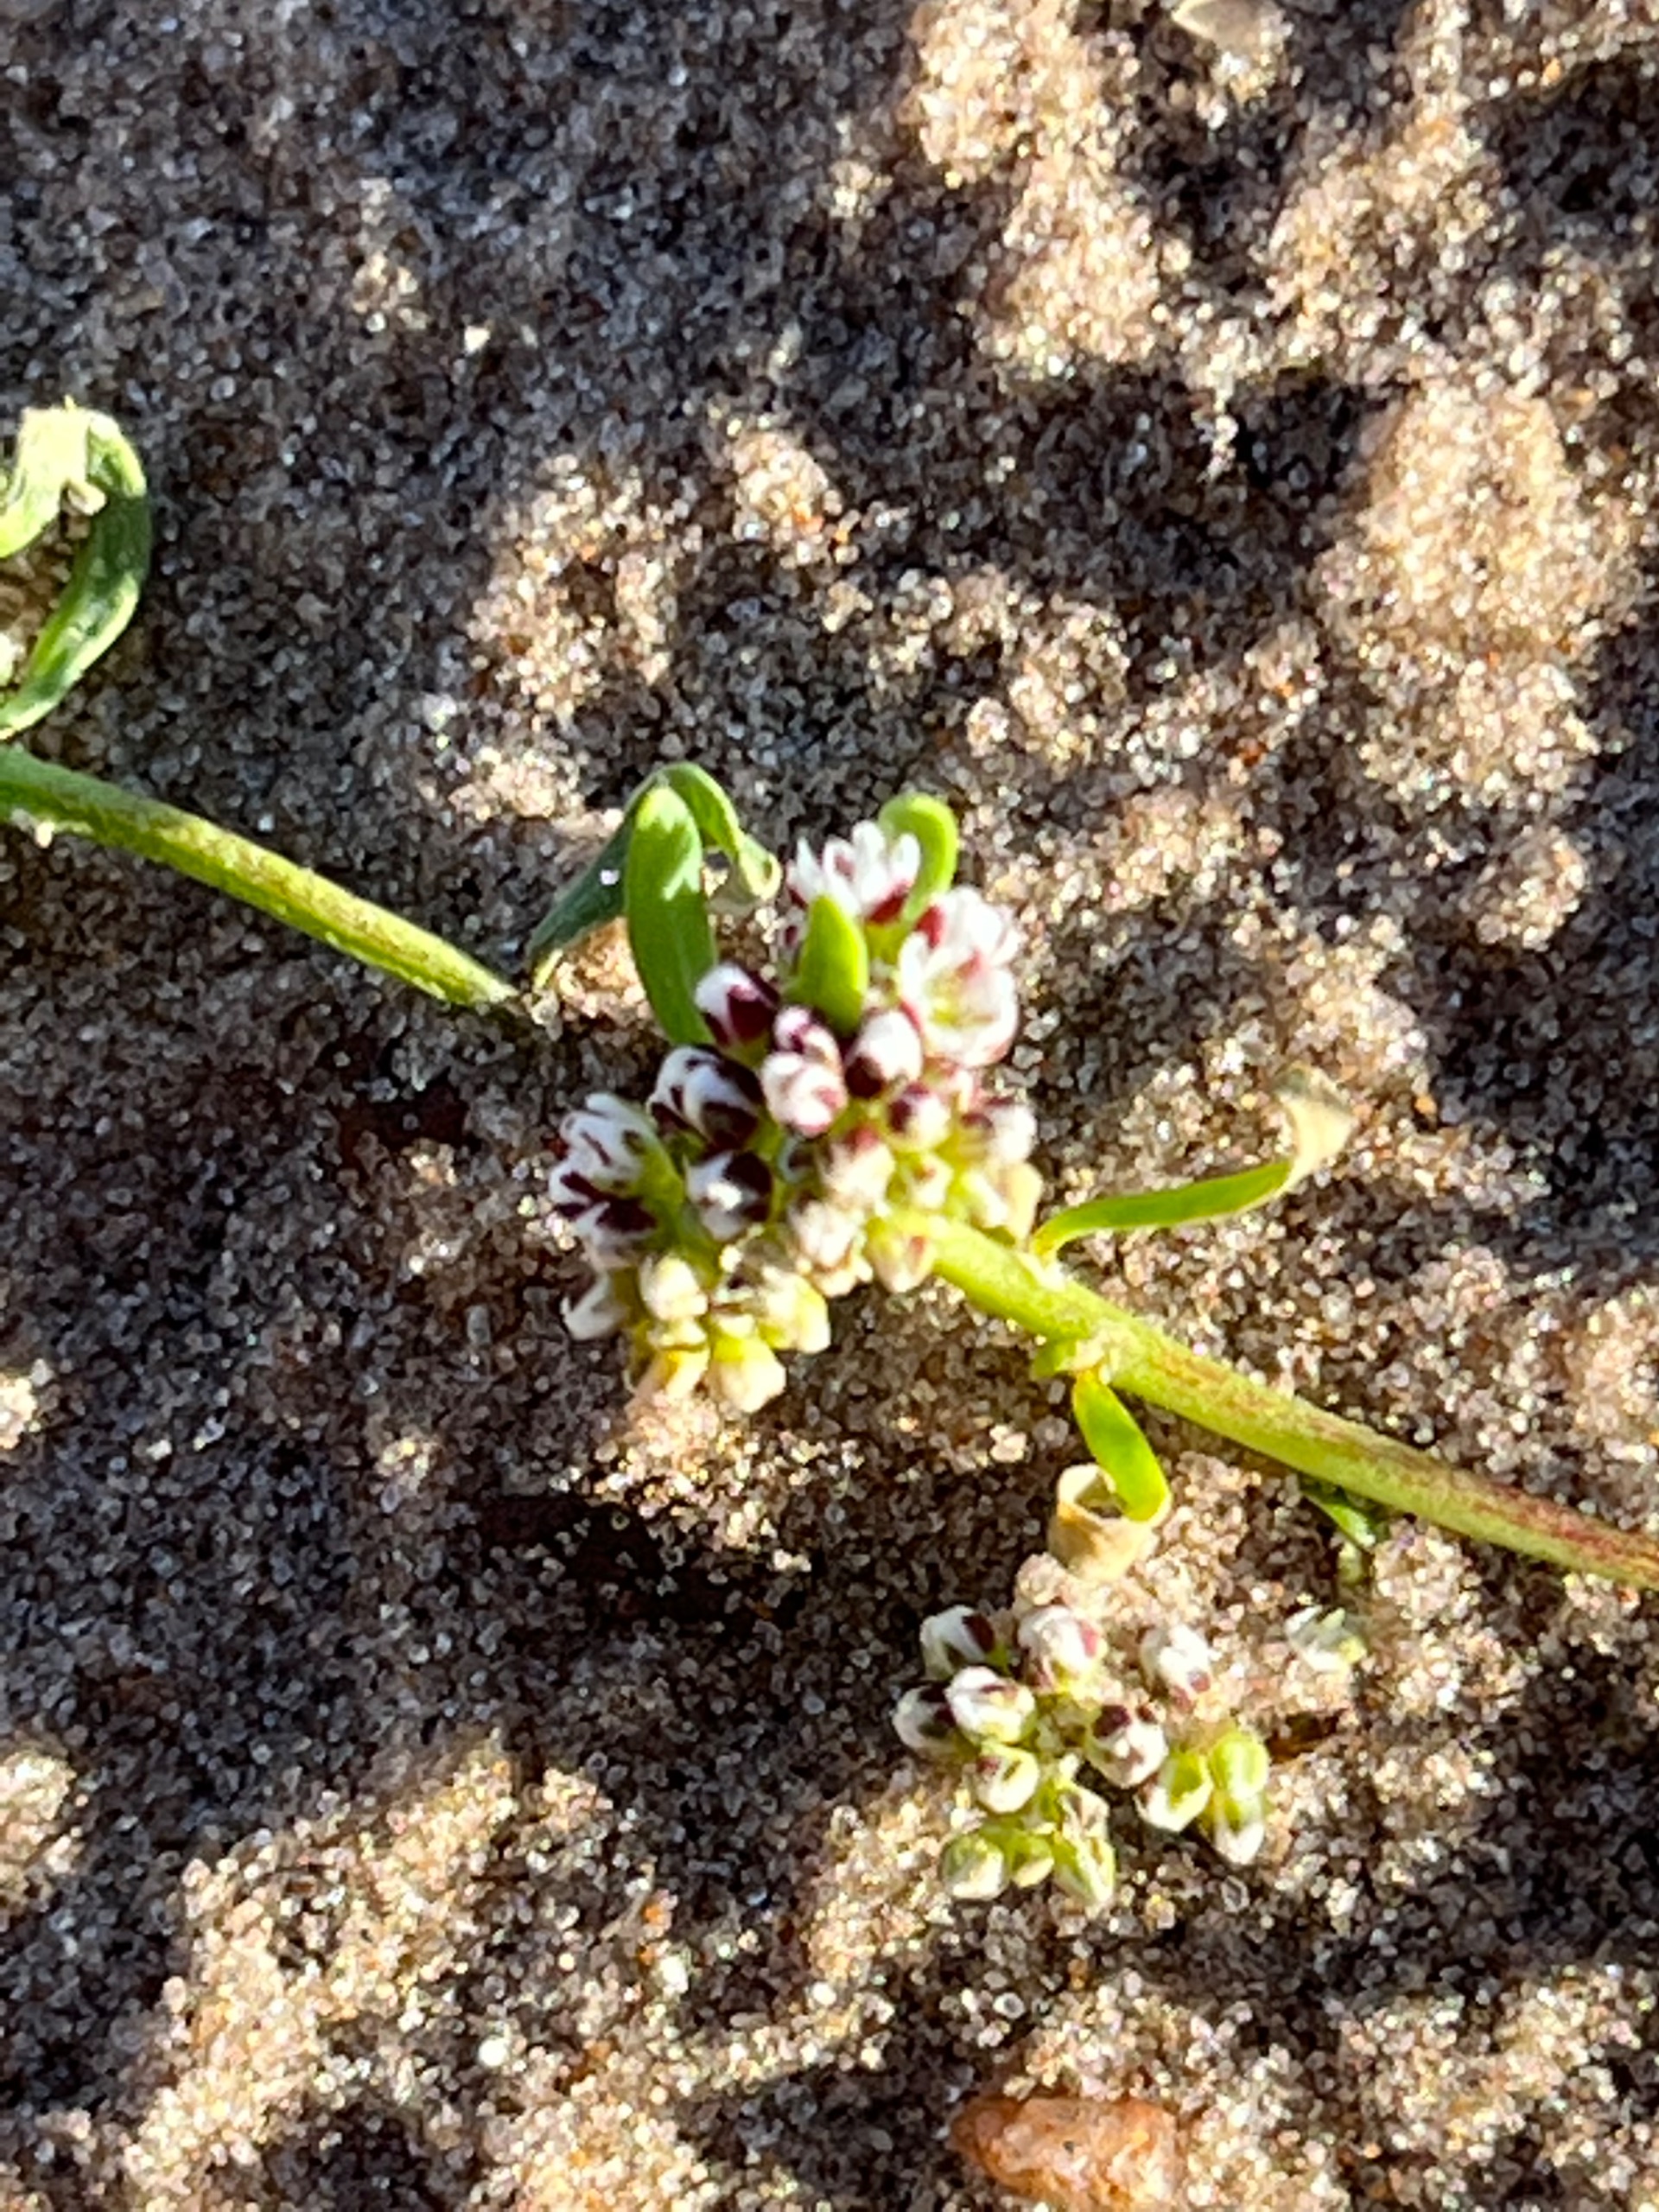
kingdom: Plantae
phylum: Tracheophyta
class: Magnoliopsida
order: Caryophyllales
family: Caryophyllaceae
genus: Corrigiola
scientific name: Corrigiola litoralis
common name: Skorem
